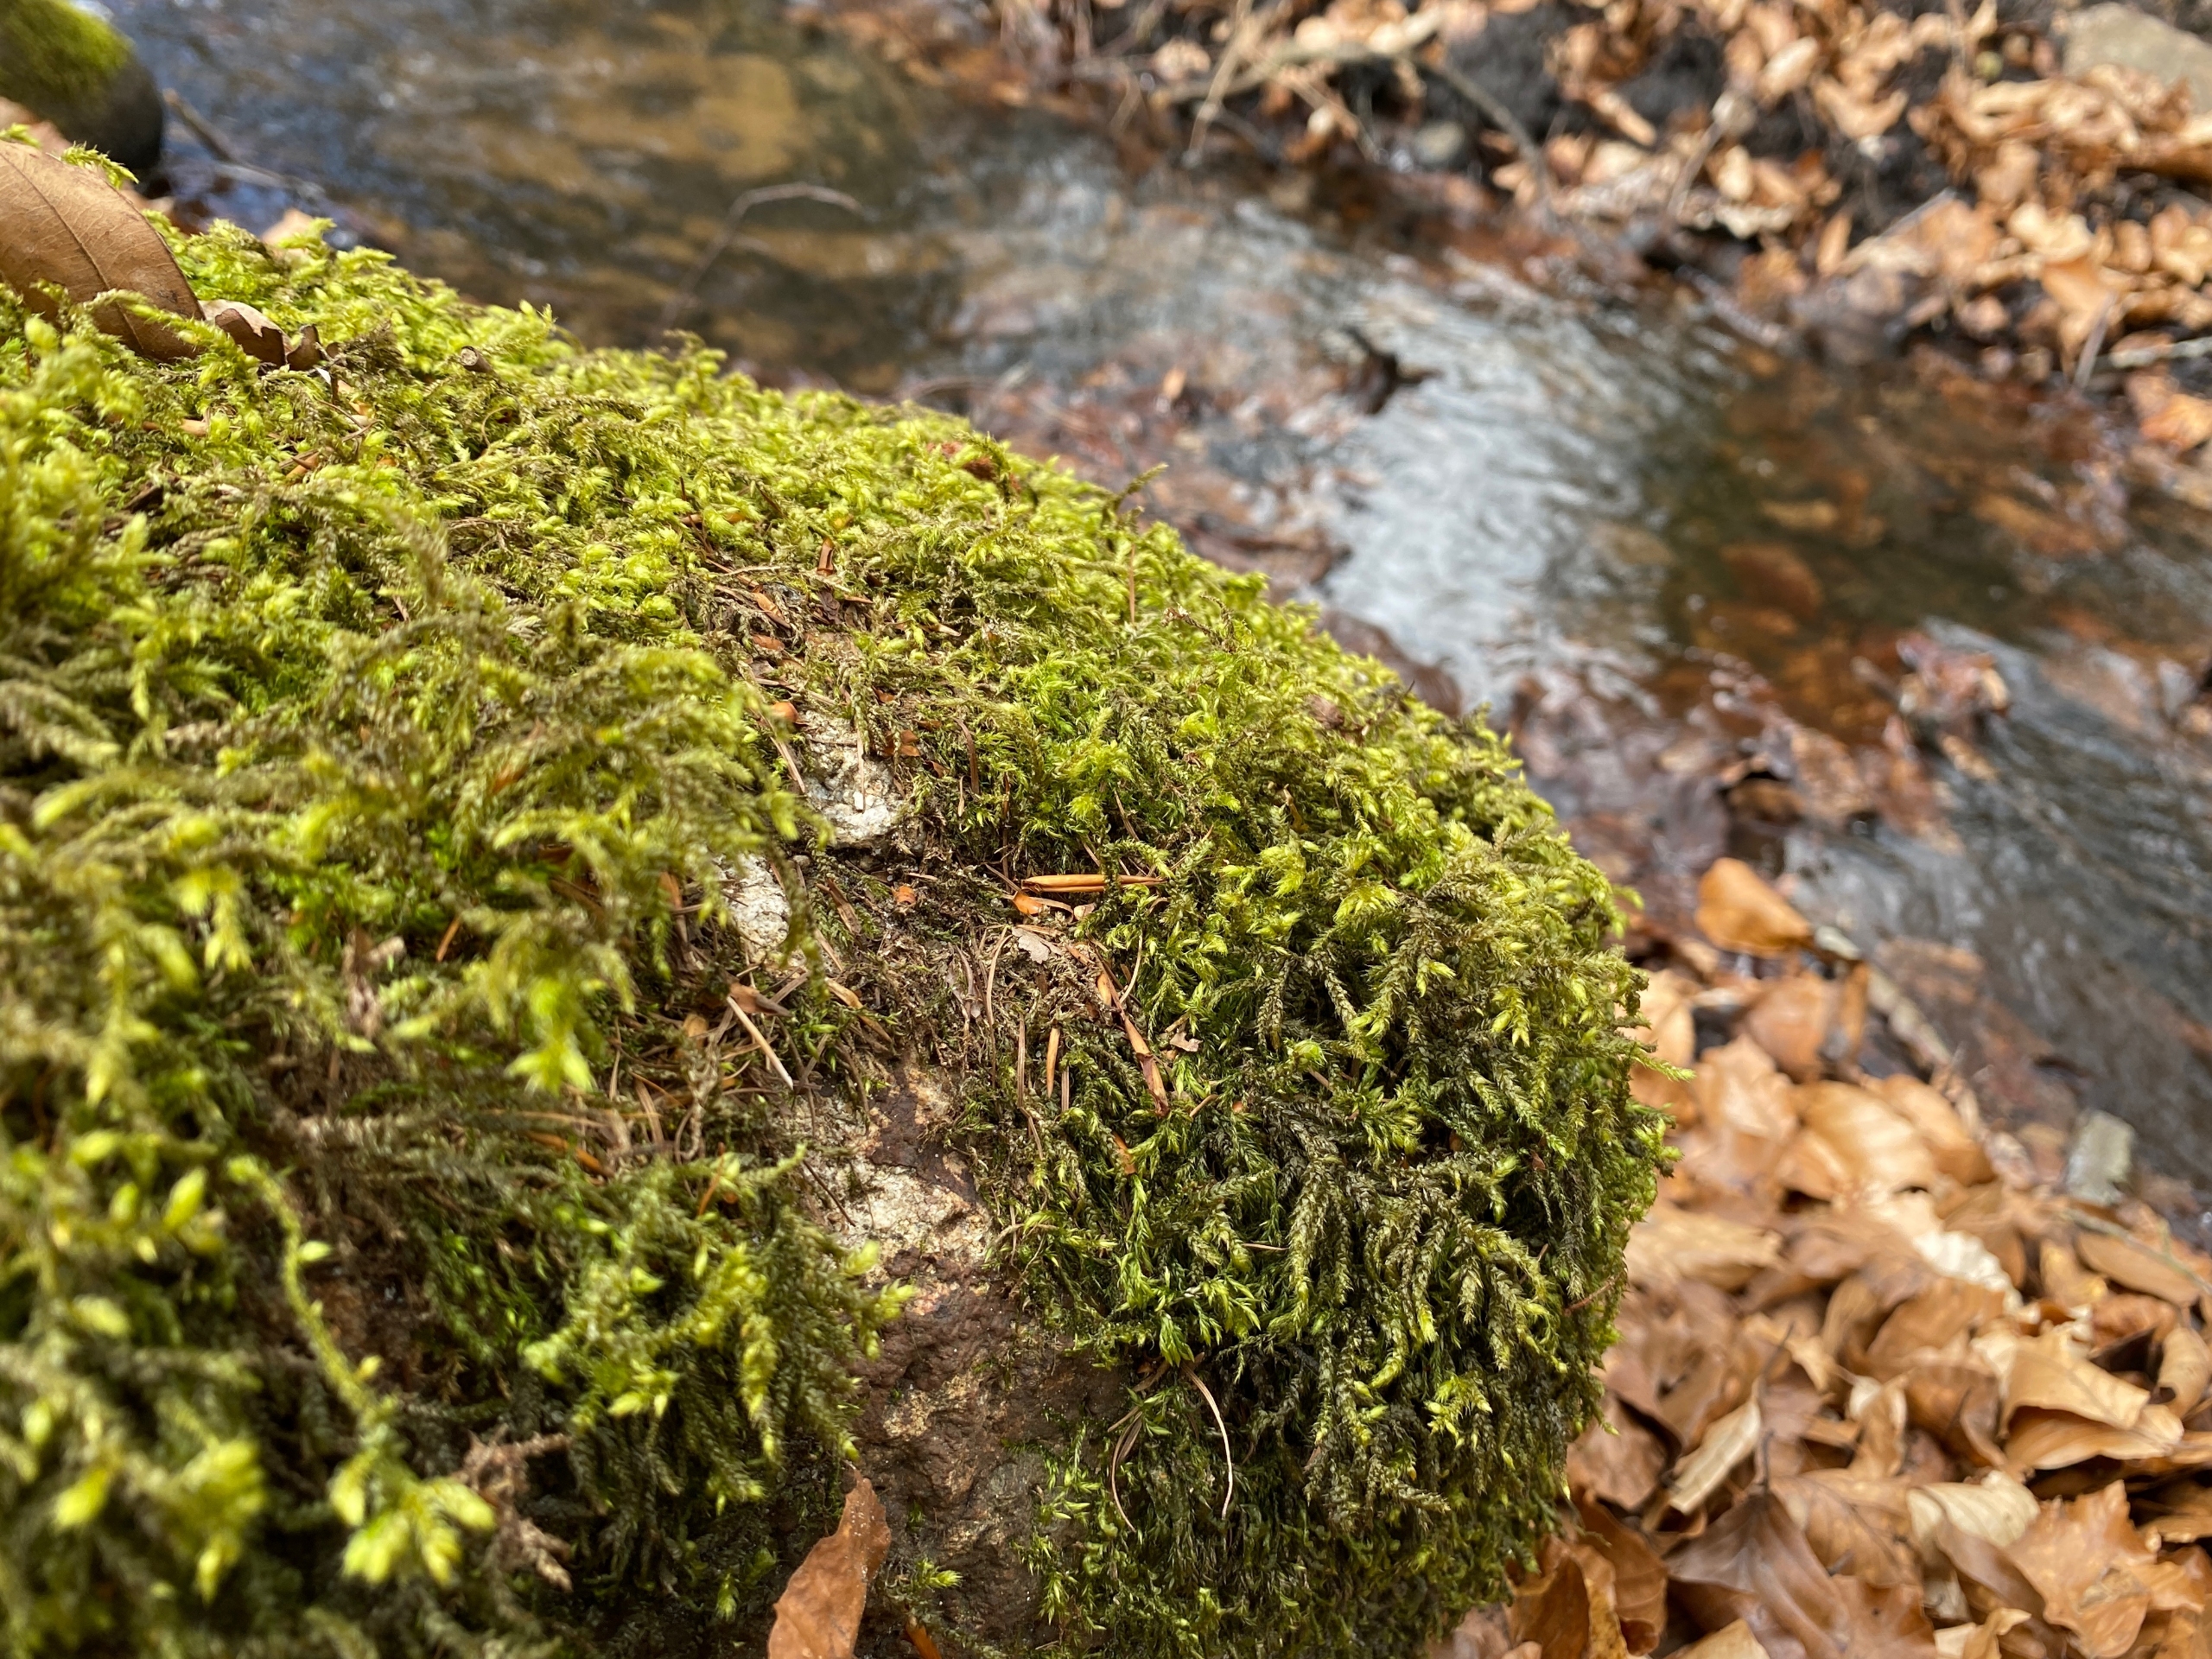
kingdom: Plantae
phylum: Bryophyta
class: Bryopsida
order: Hypnales
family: Hylocomiaceae
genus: Loeskeobryum
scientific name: Loeskeobryum brevirostre
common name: Åben etagemos
